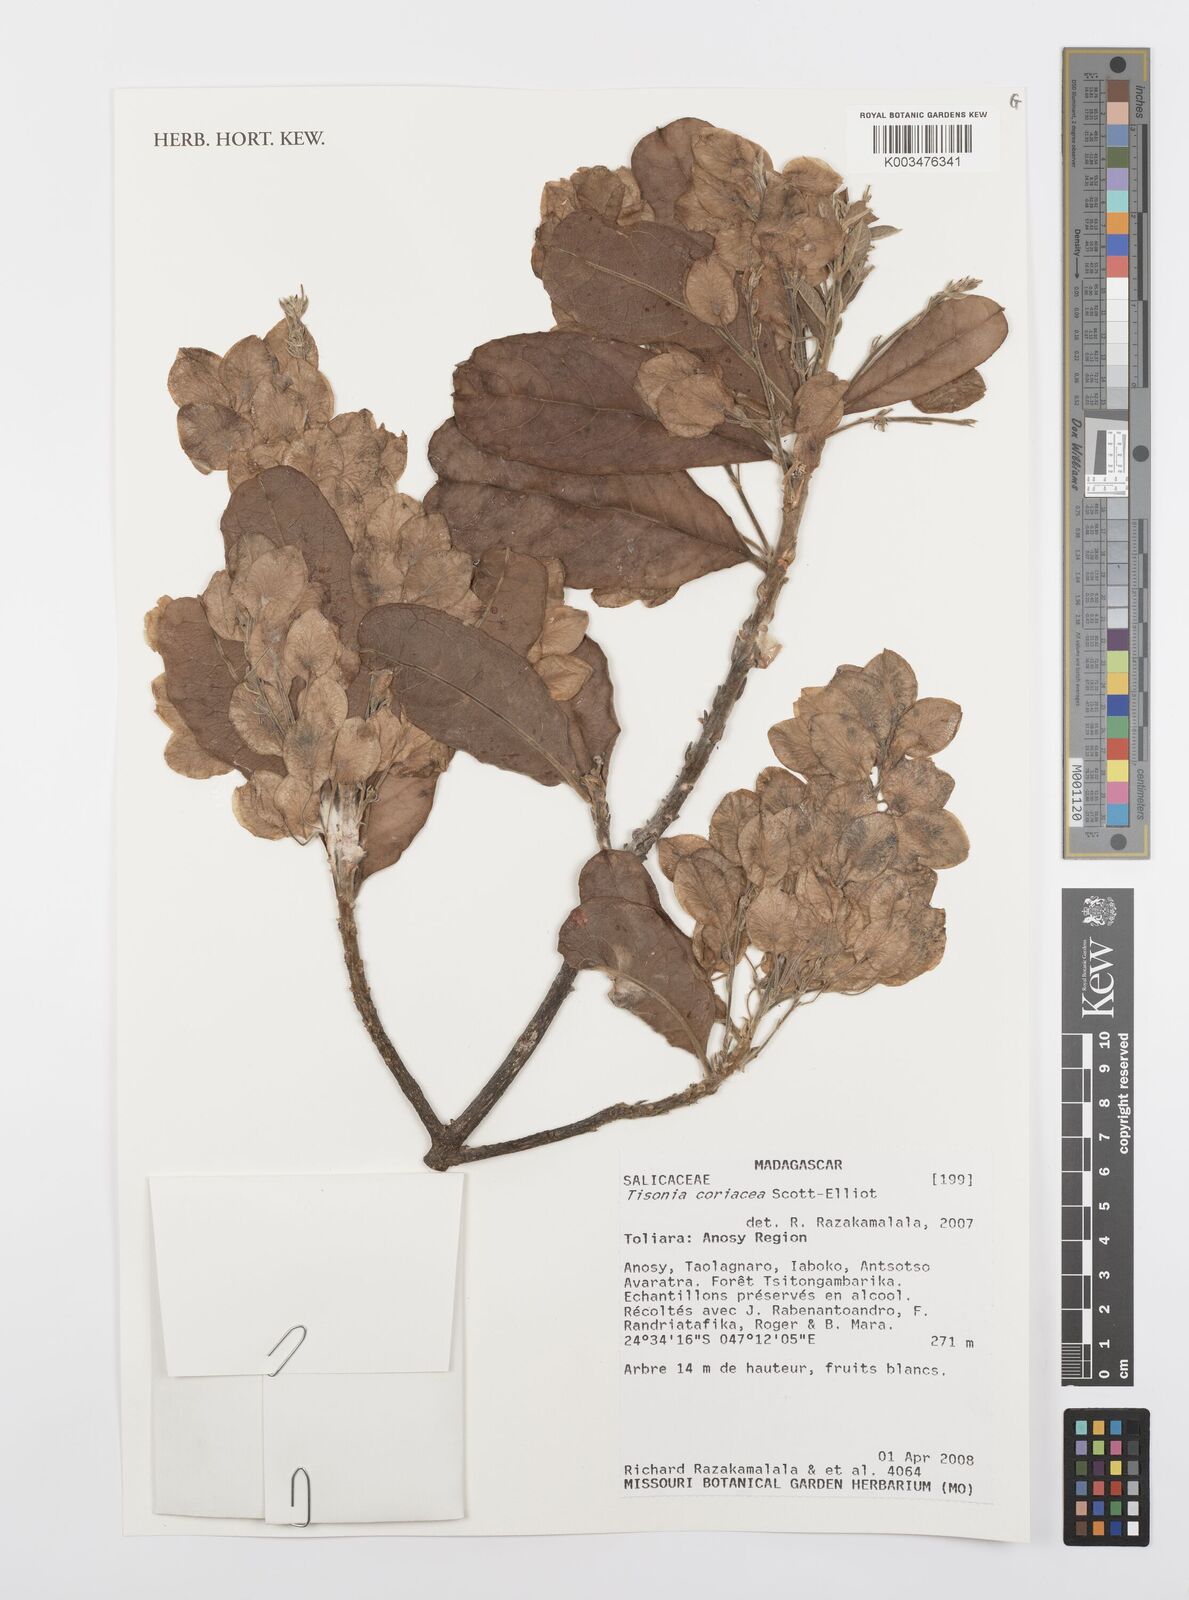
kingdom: Plantae
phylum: Tracheophyta
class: Magnoliopsida
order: Malpighiales
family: Salicaceae
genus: Tisonia
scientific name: Tisonia coriacea
